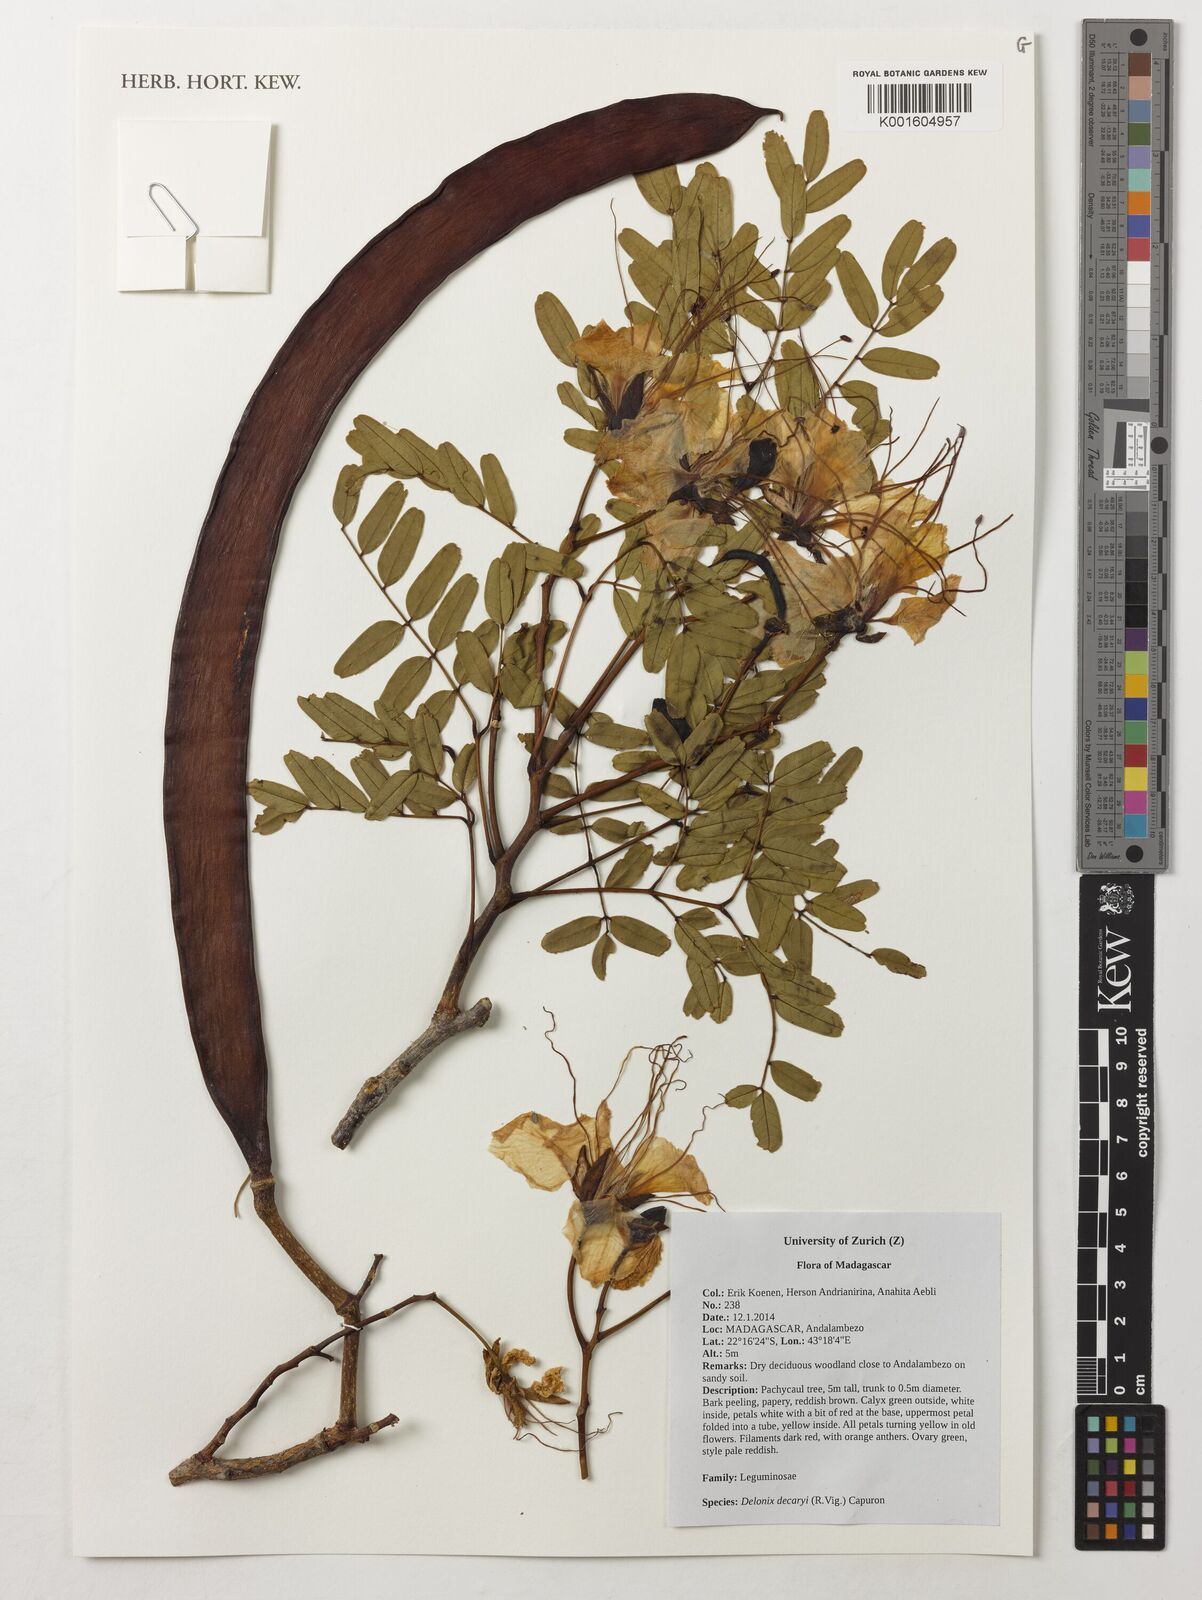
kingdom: Plantae
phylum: Tracheophyta
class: Magnoliopsida
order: Fabales
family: Fabaceae
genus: Delonix
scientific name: Delonix decaryi
